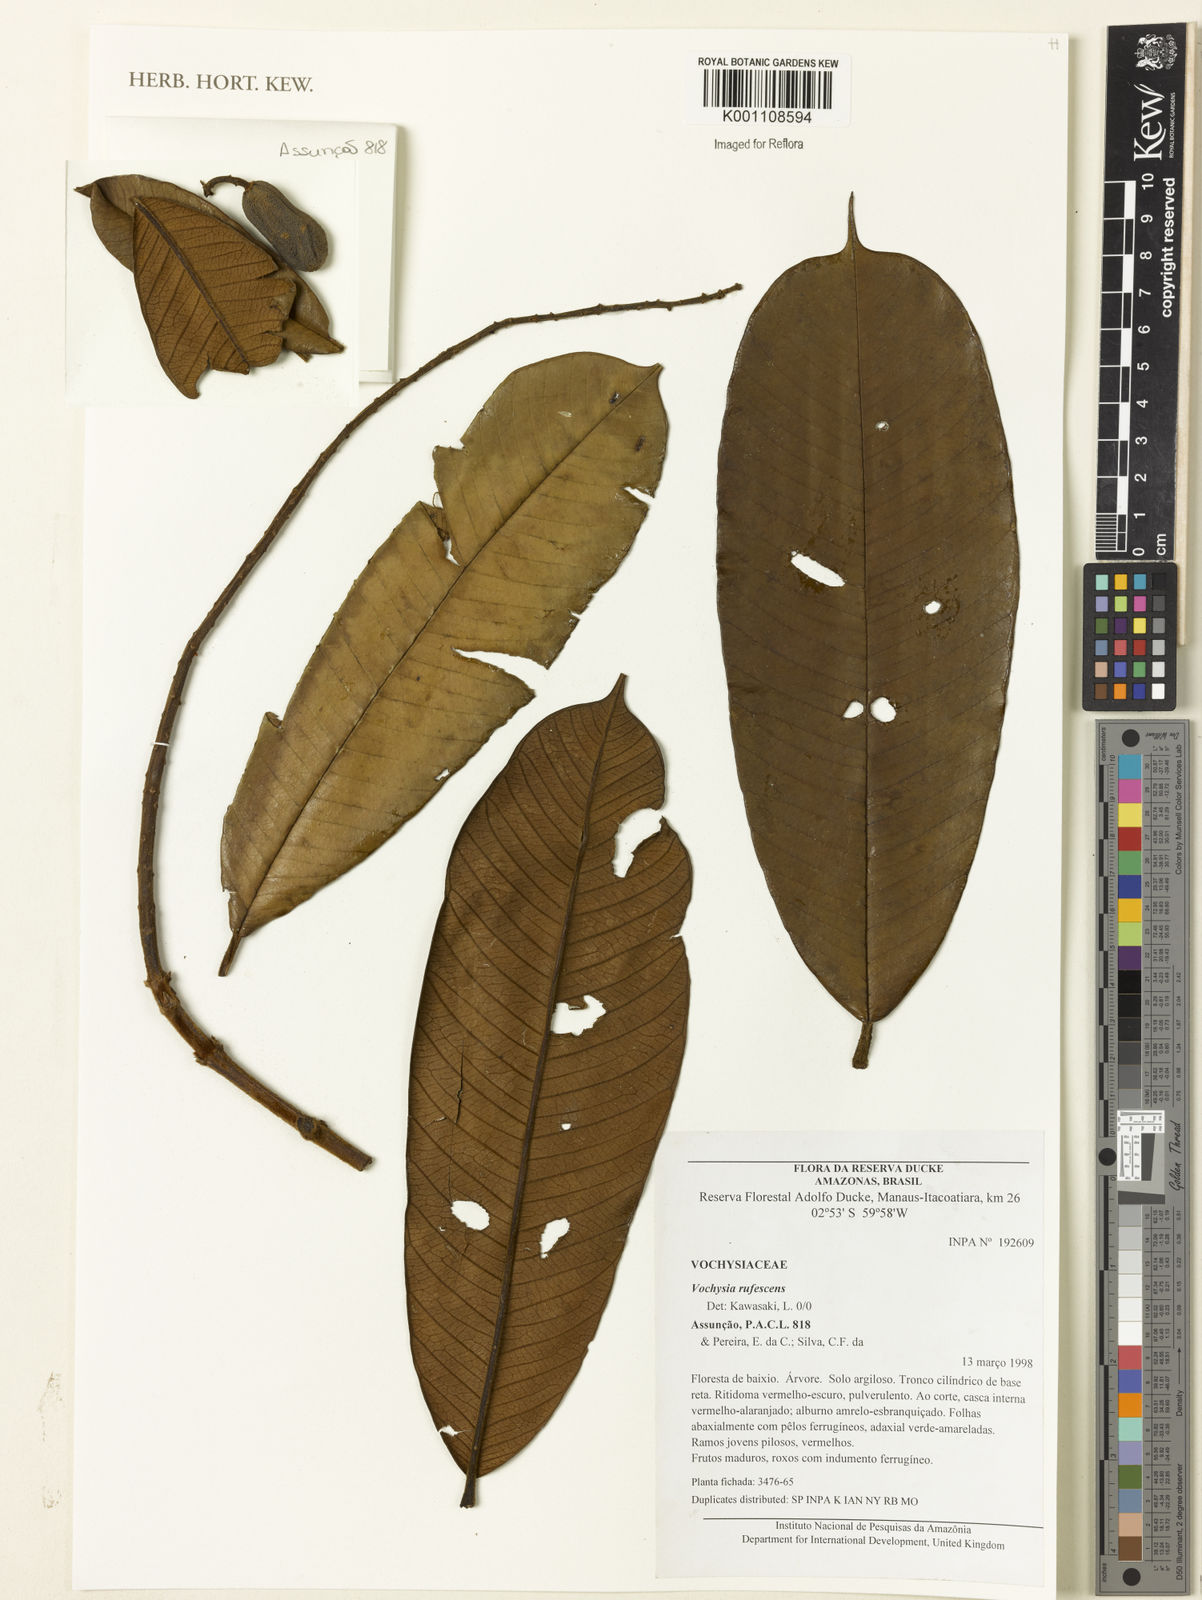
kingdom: Plantae
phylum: Tracheophyta
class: Magnoliopsida
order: Myrtales
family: Vochysiaceae
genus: Vochysia
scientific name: Vochysia rufescens
